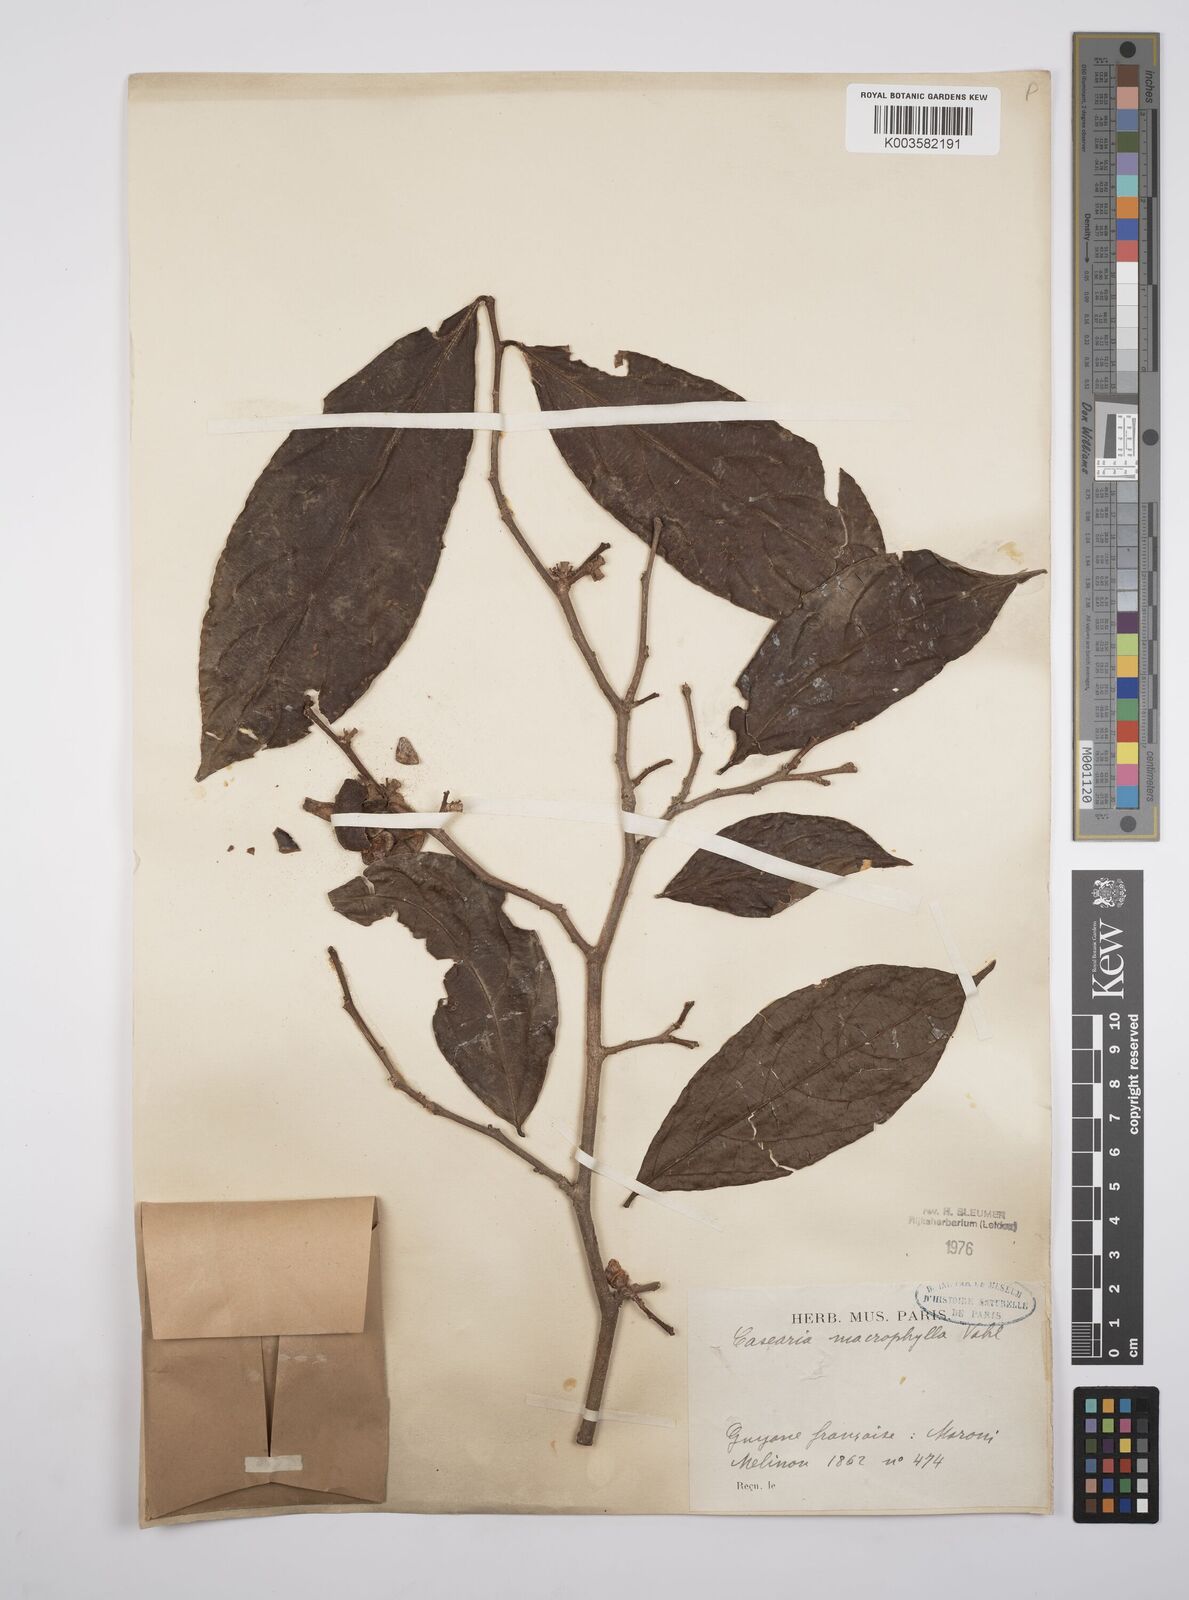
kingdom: Plantae
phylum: Tracheophyta
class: Magnoliopsida
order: Malpighiales
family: Salicaceae
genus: Casearia
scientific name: Casearia pitumba
